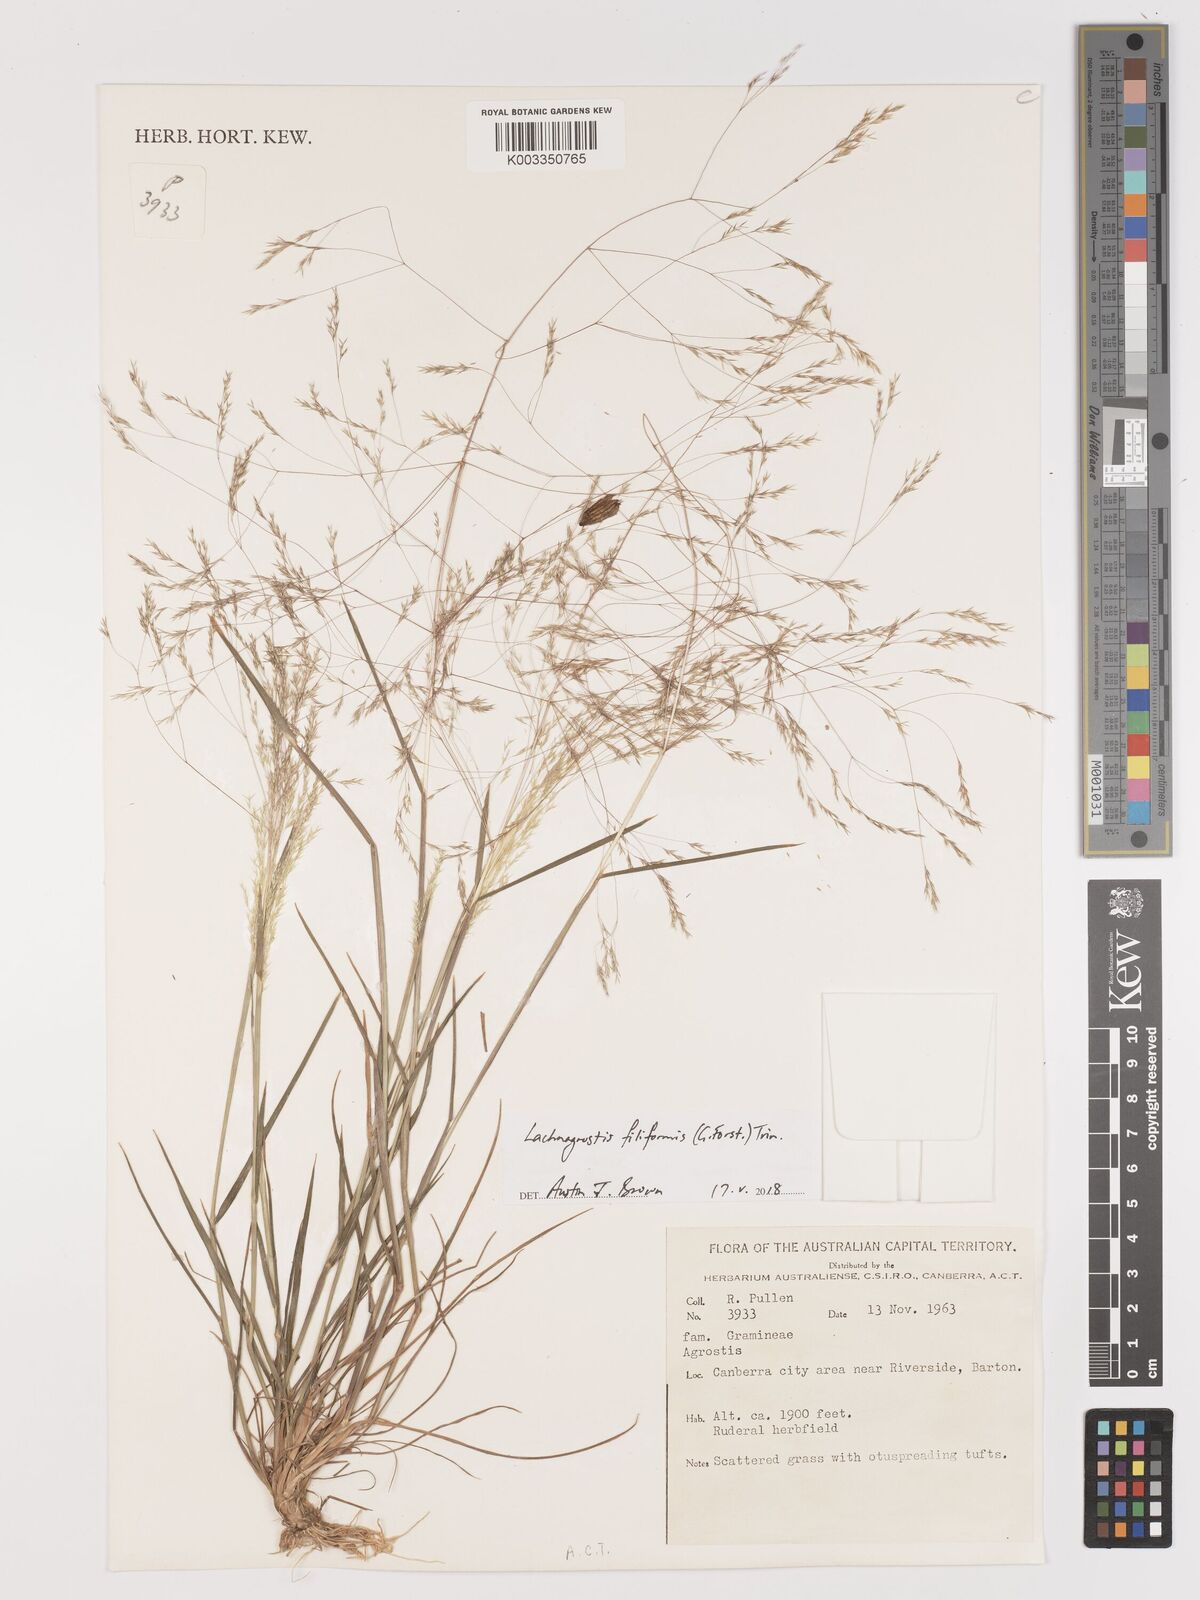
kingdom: Plantae
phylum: Tracheophyta
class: Liliopsida
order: Poales
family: Poaceae
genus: Lachnagrostis
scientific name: Lachnagrostis filiformis
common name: Bentgrass
